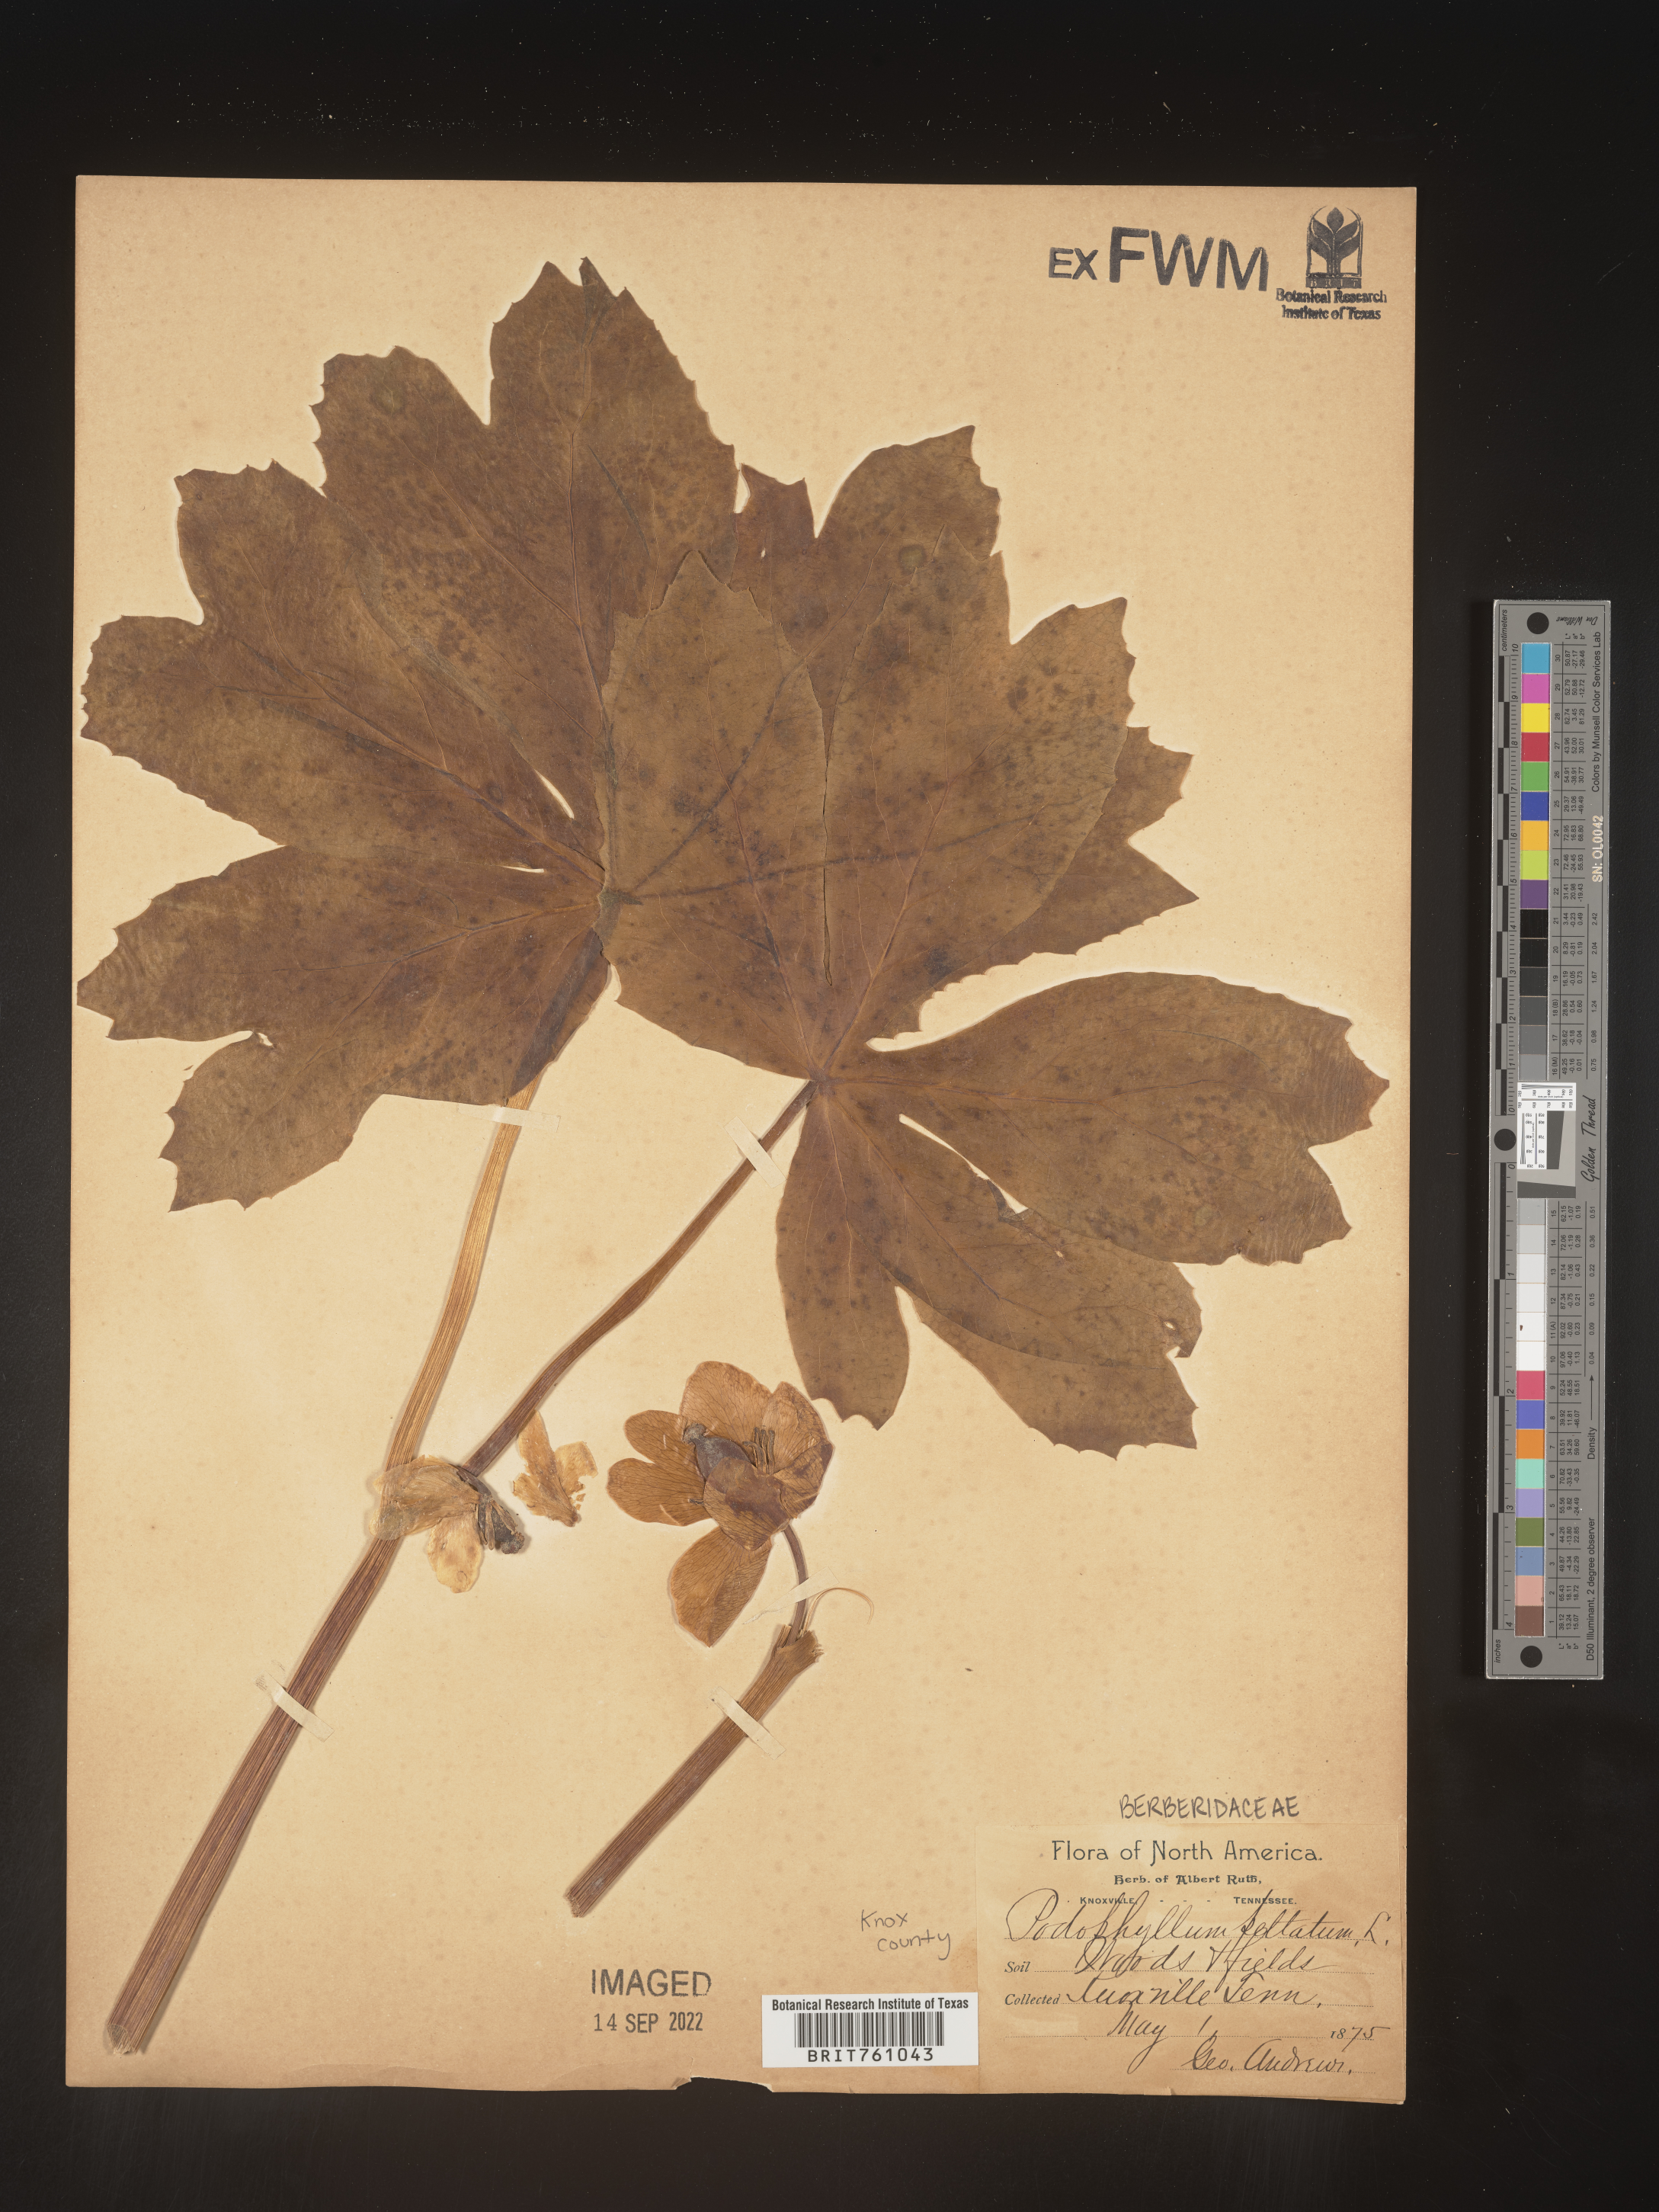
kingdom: Plantae
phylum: Tracheophyta
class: Magnoliopsida
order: Ranunculales
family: Berberidaceae
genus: Podophyllum
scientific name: Podophyllum peltatum
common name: Wild mandrake
